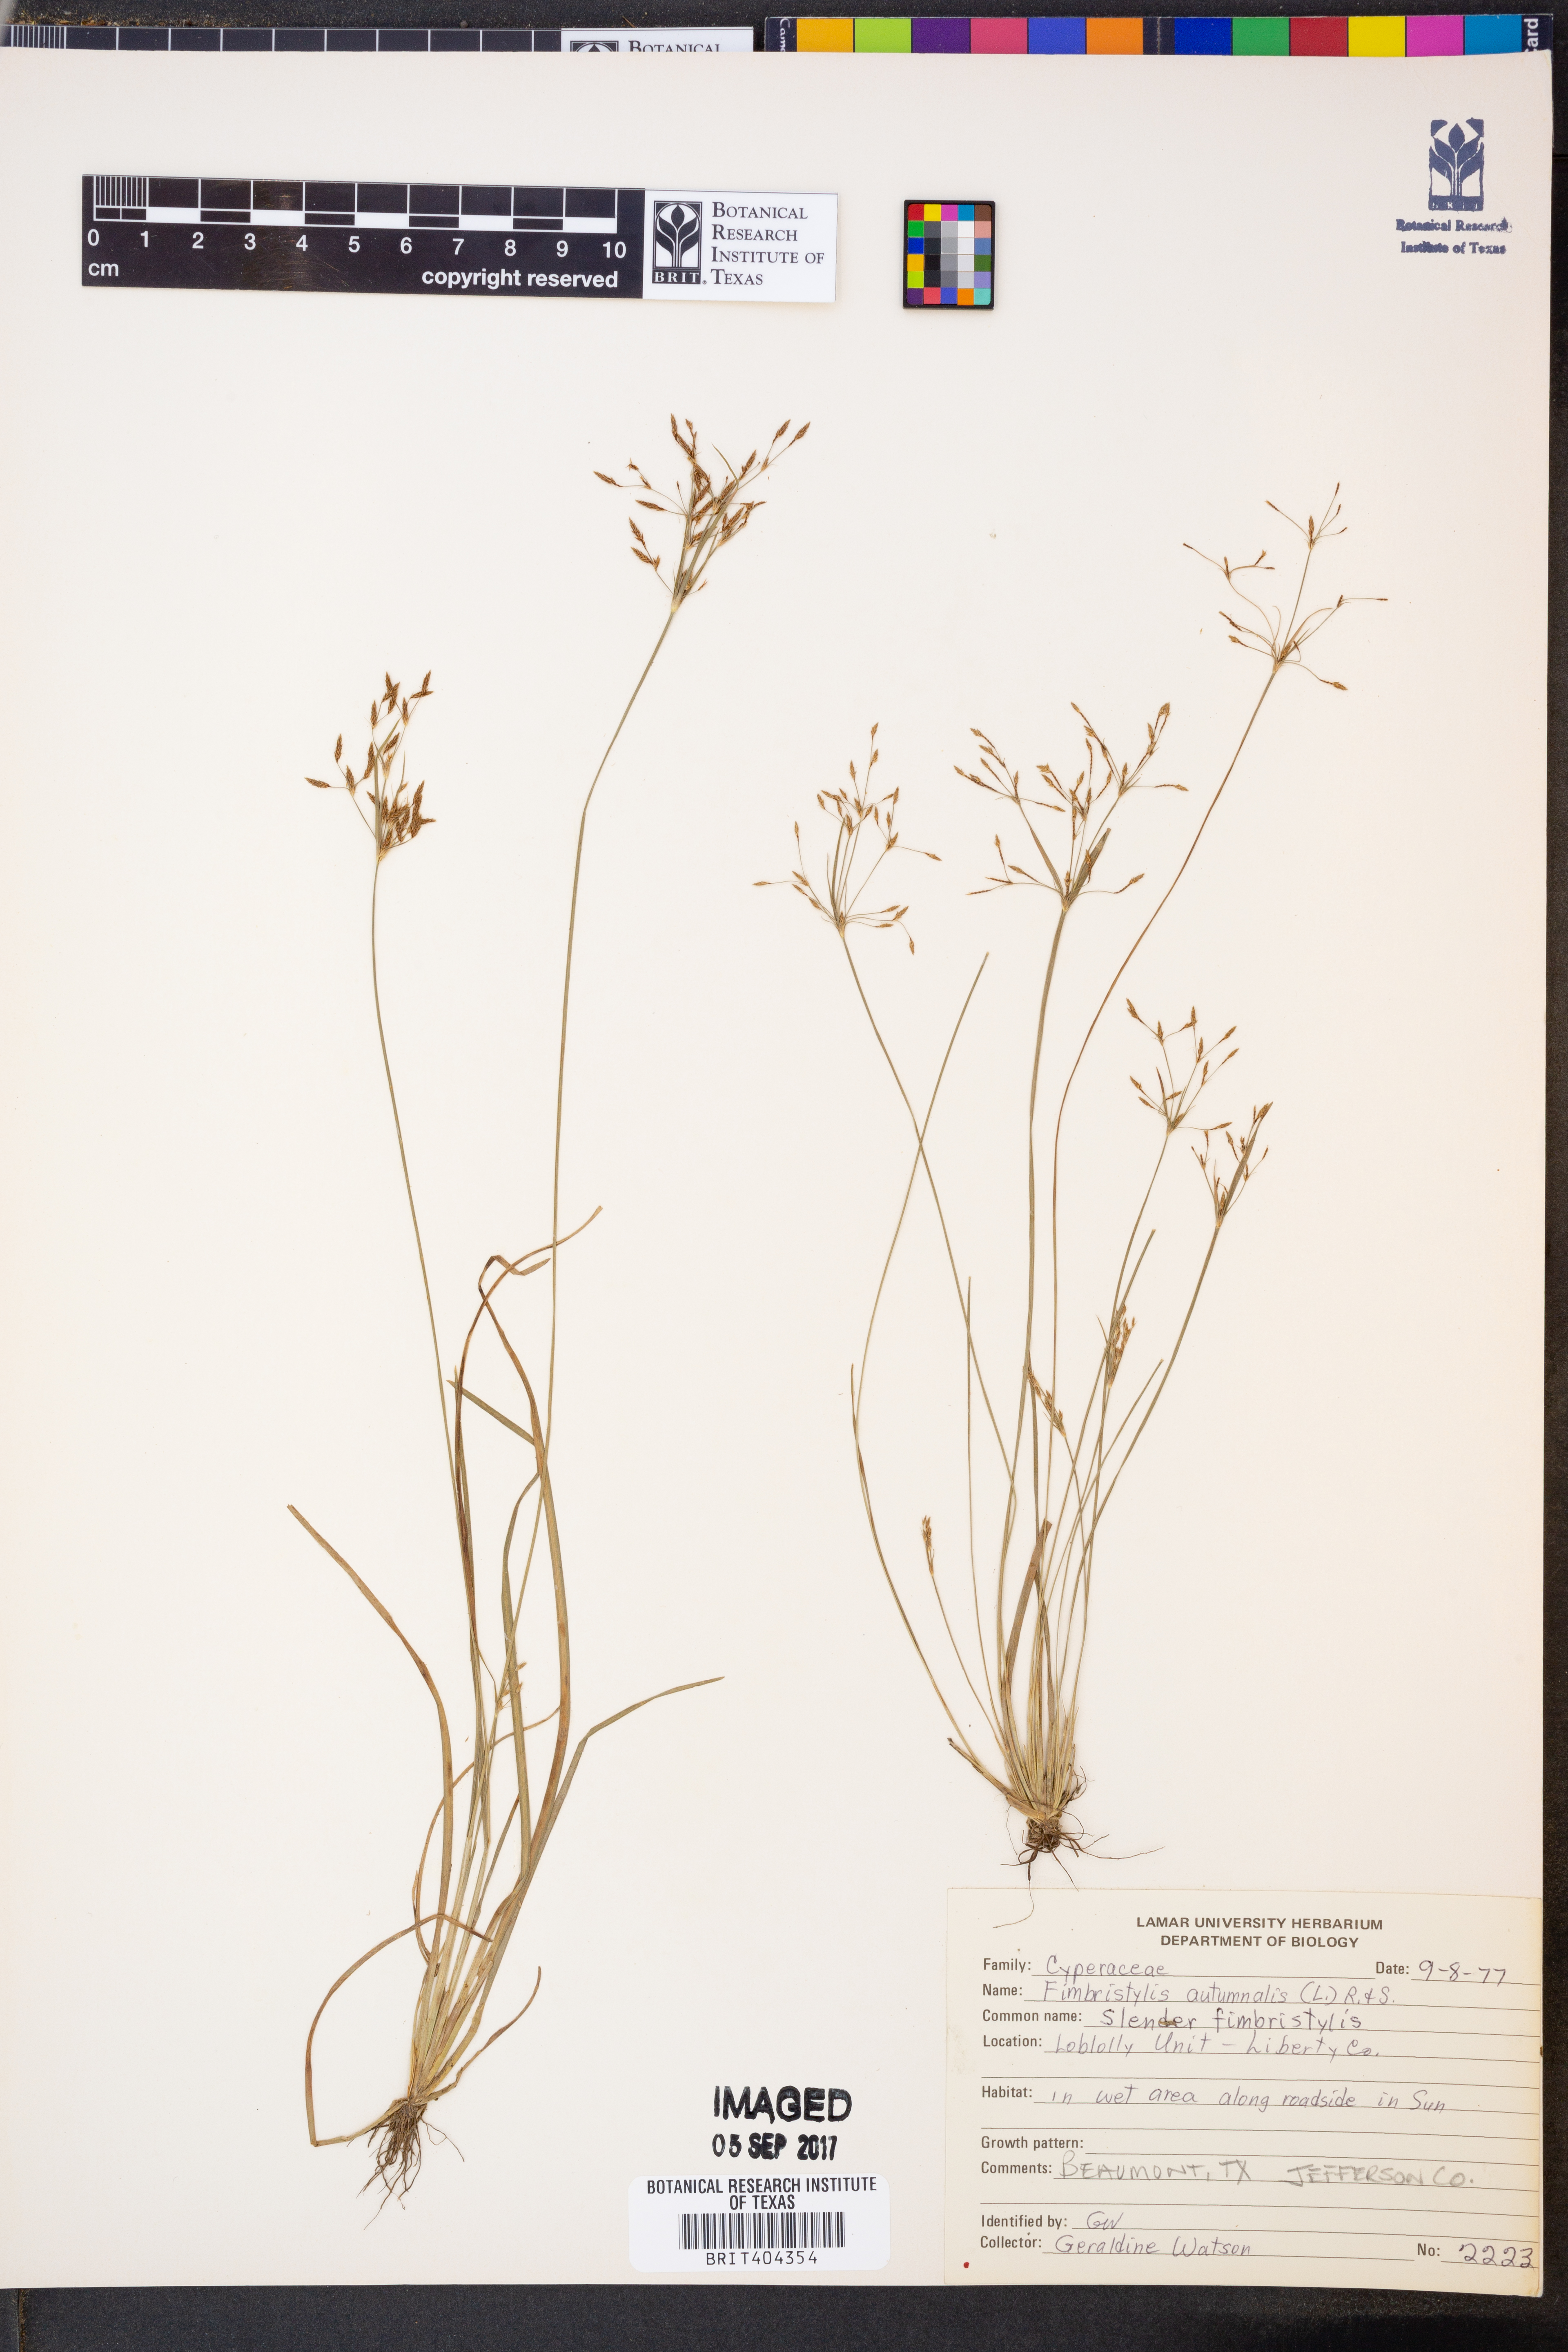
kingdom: Plantae
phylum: Tracheophyta
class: Liliopsida
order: Poales
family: Cyperaceae
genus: Fimbristylis
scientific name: Fimbristylis autumnalis
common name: Slender fimbristylis
